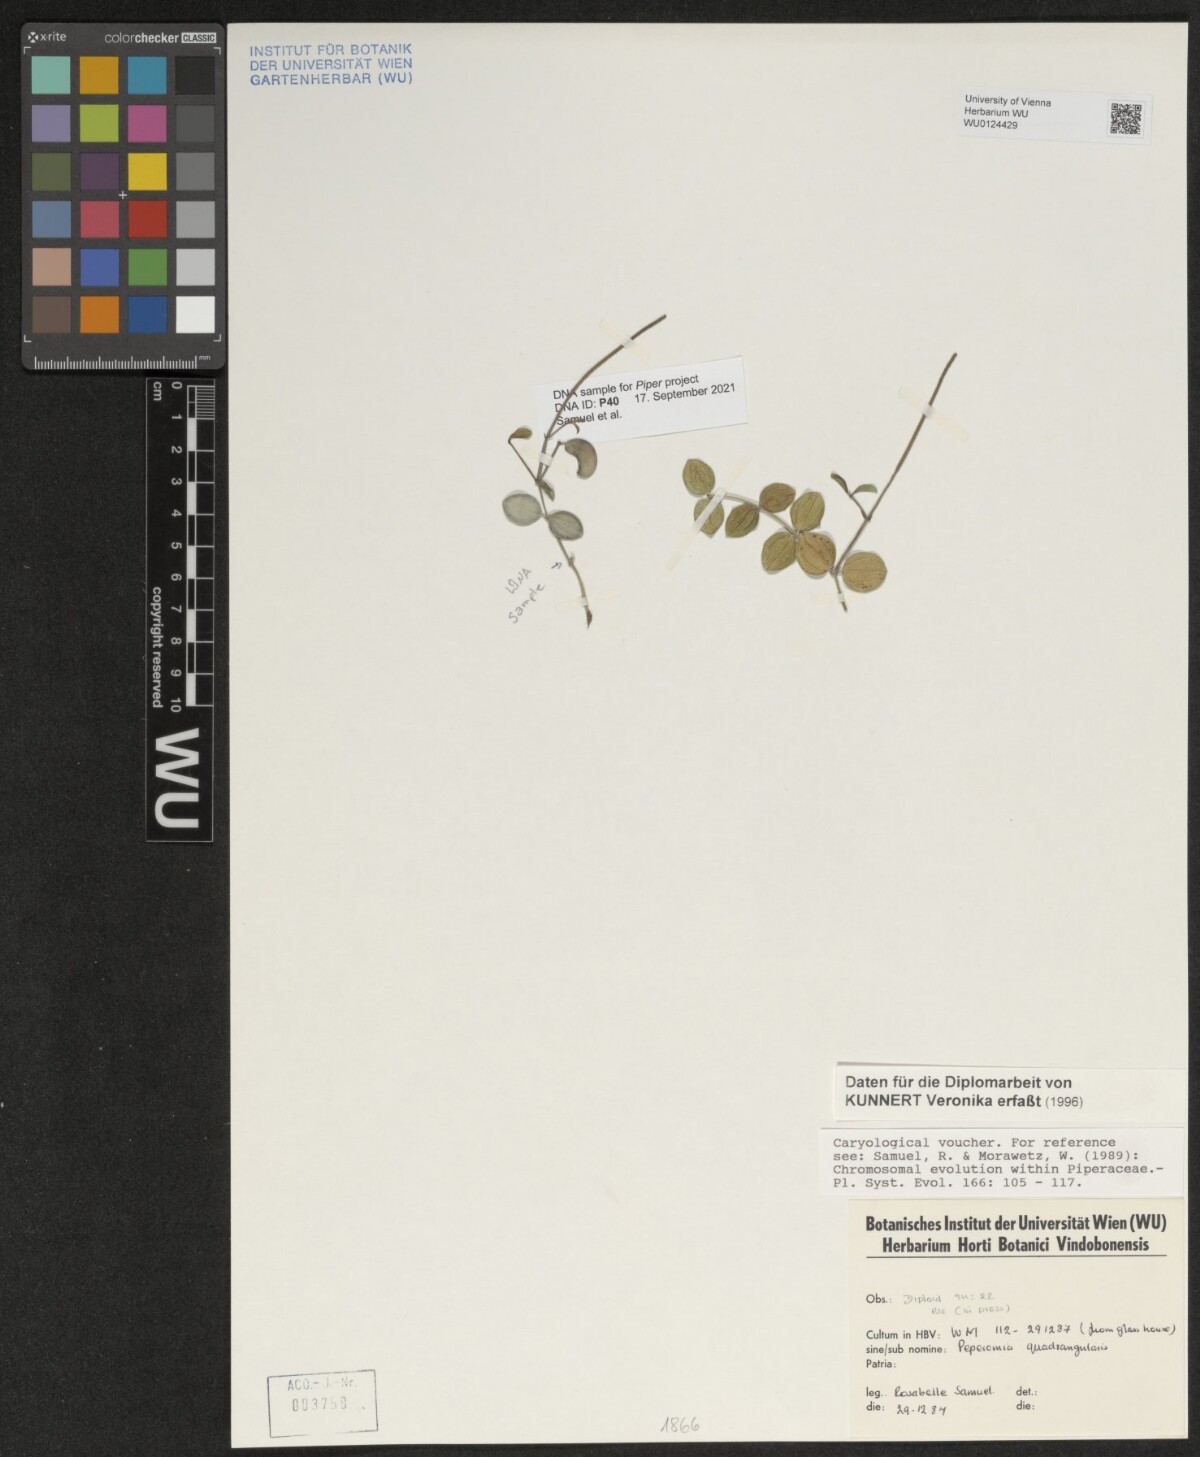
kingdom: Plantae
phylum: Tracheophyta
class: Magnoliopsida
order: Piperales
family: Piperaceae
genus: Peperomia
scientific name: Peperomia quadrangularis
